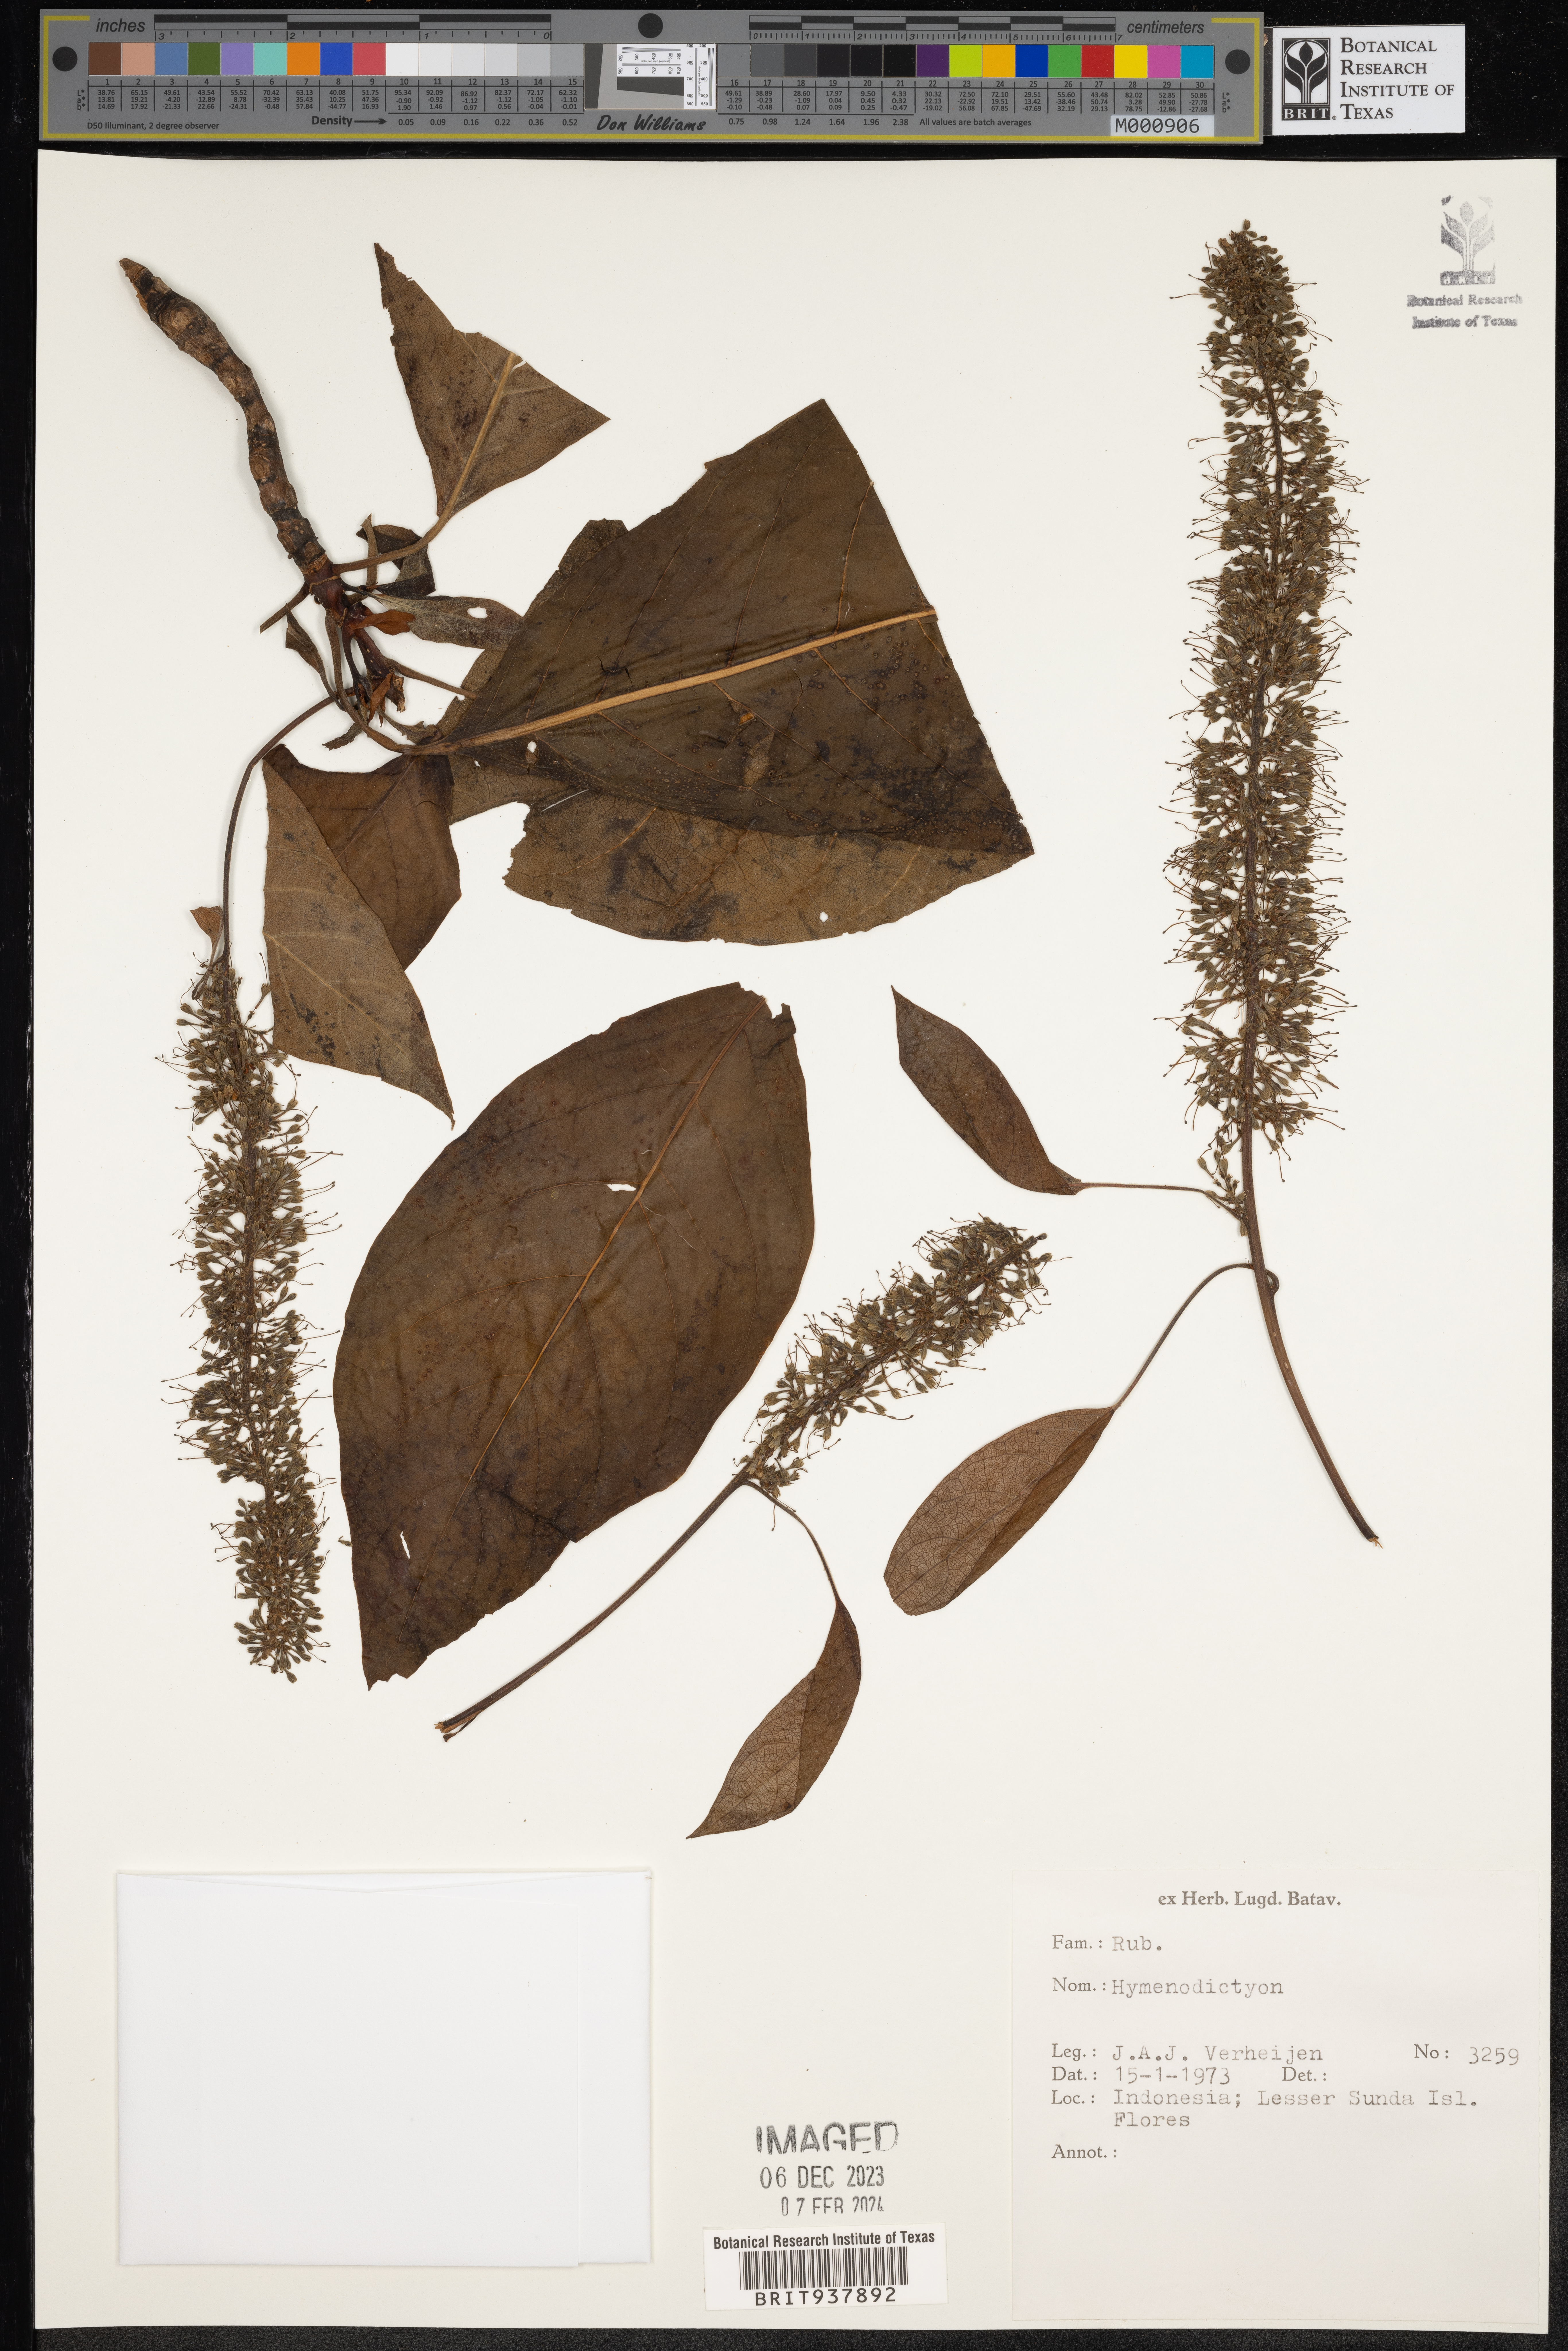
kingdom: Plantae
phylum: Tracheophyta
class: Magnoliopsida
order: Gentianales
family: Rubiaceae
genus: Hymenodictyon
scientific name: Hymenodictyon
